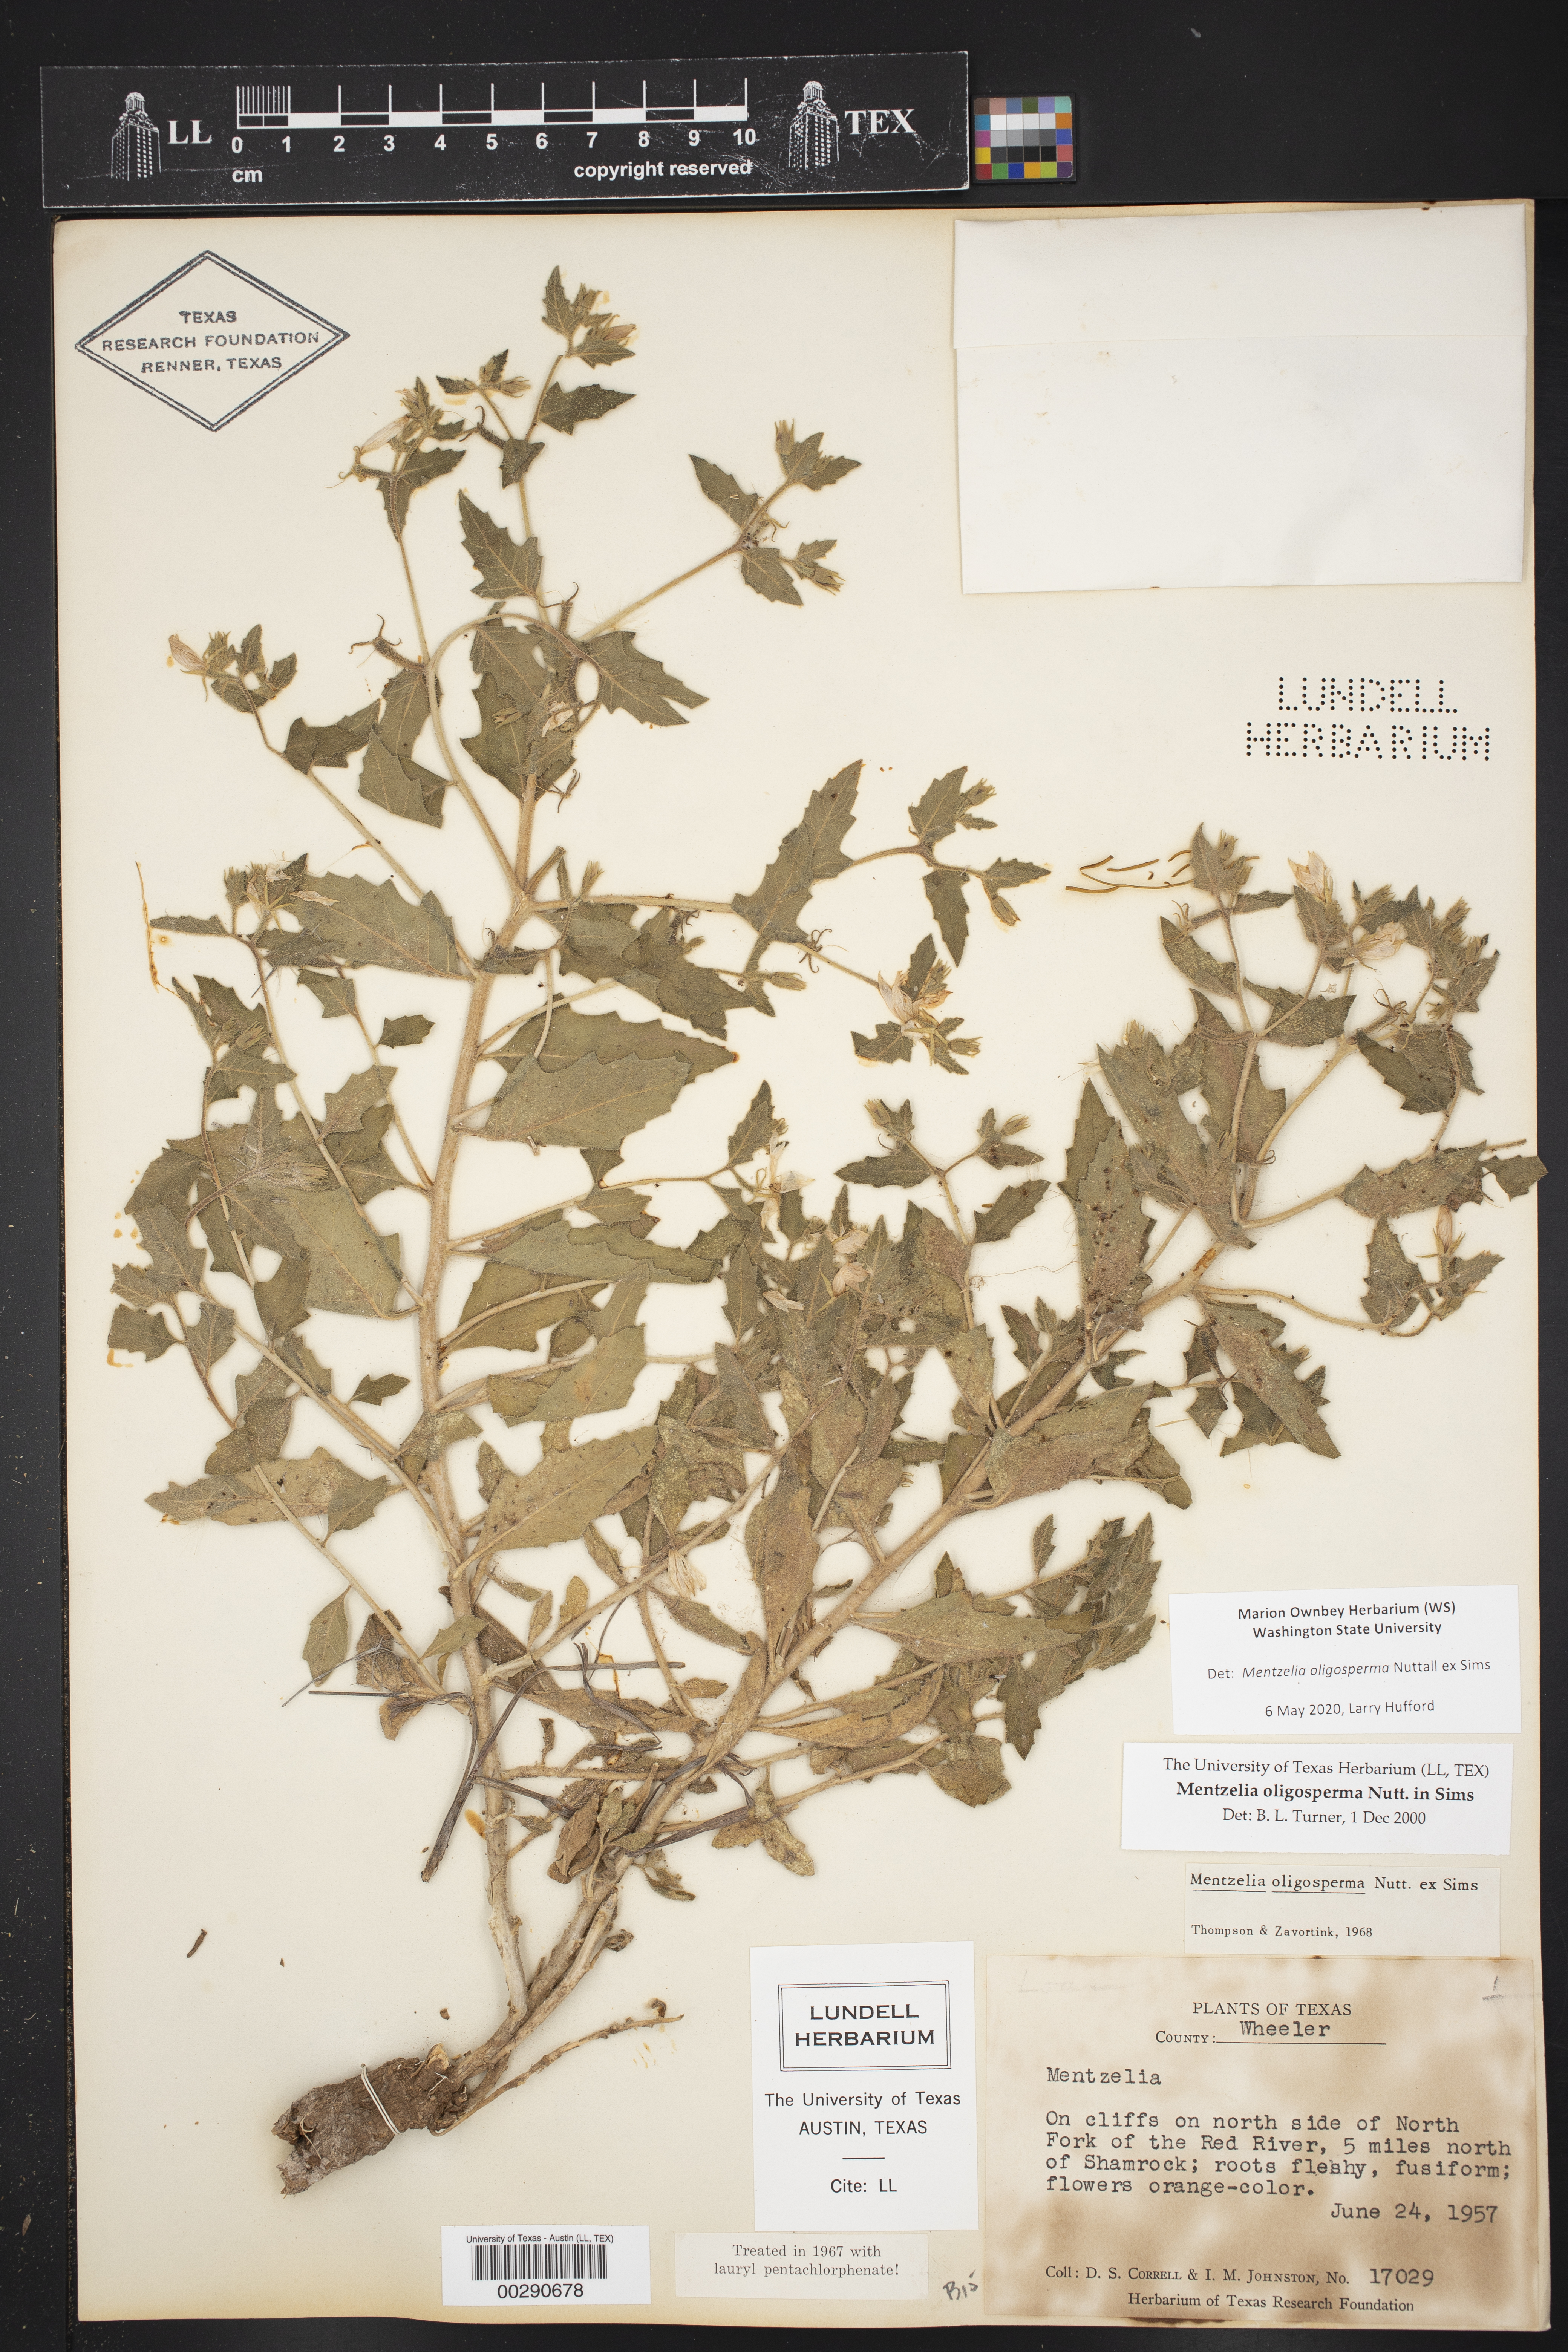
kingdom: Plantae
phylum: Tracheophyta
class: Magnoliopsida
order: Cornales
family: Loasaceae
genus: Mentzelia
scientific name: Mentzelia oligosperma
